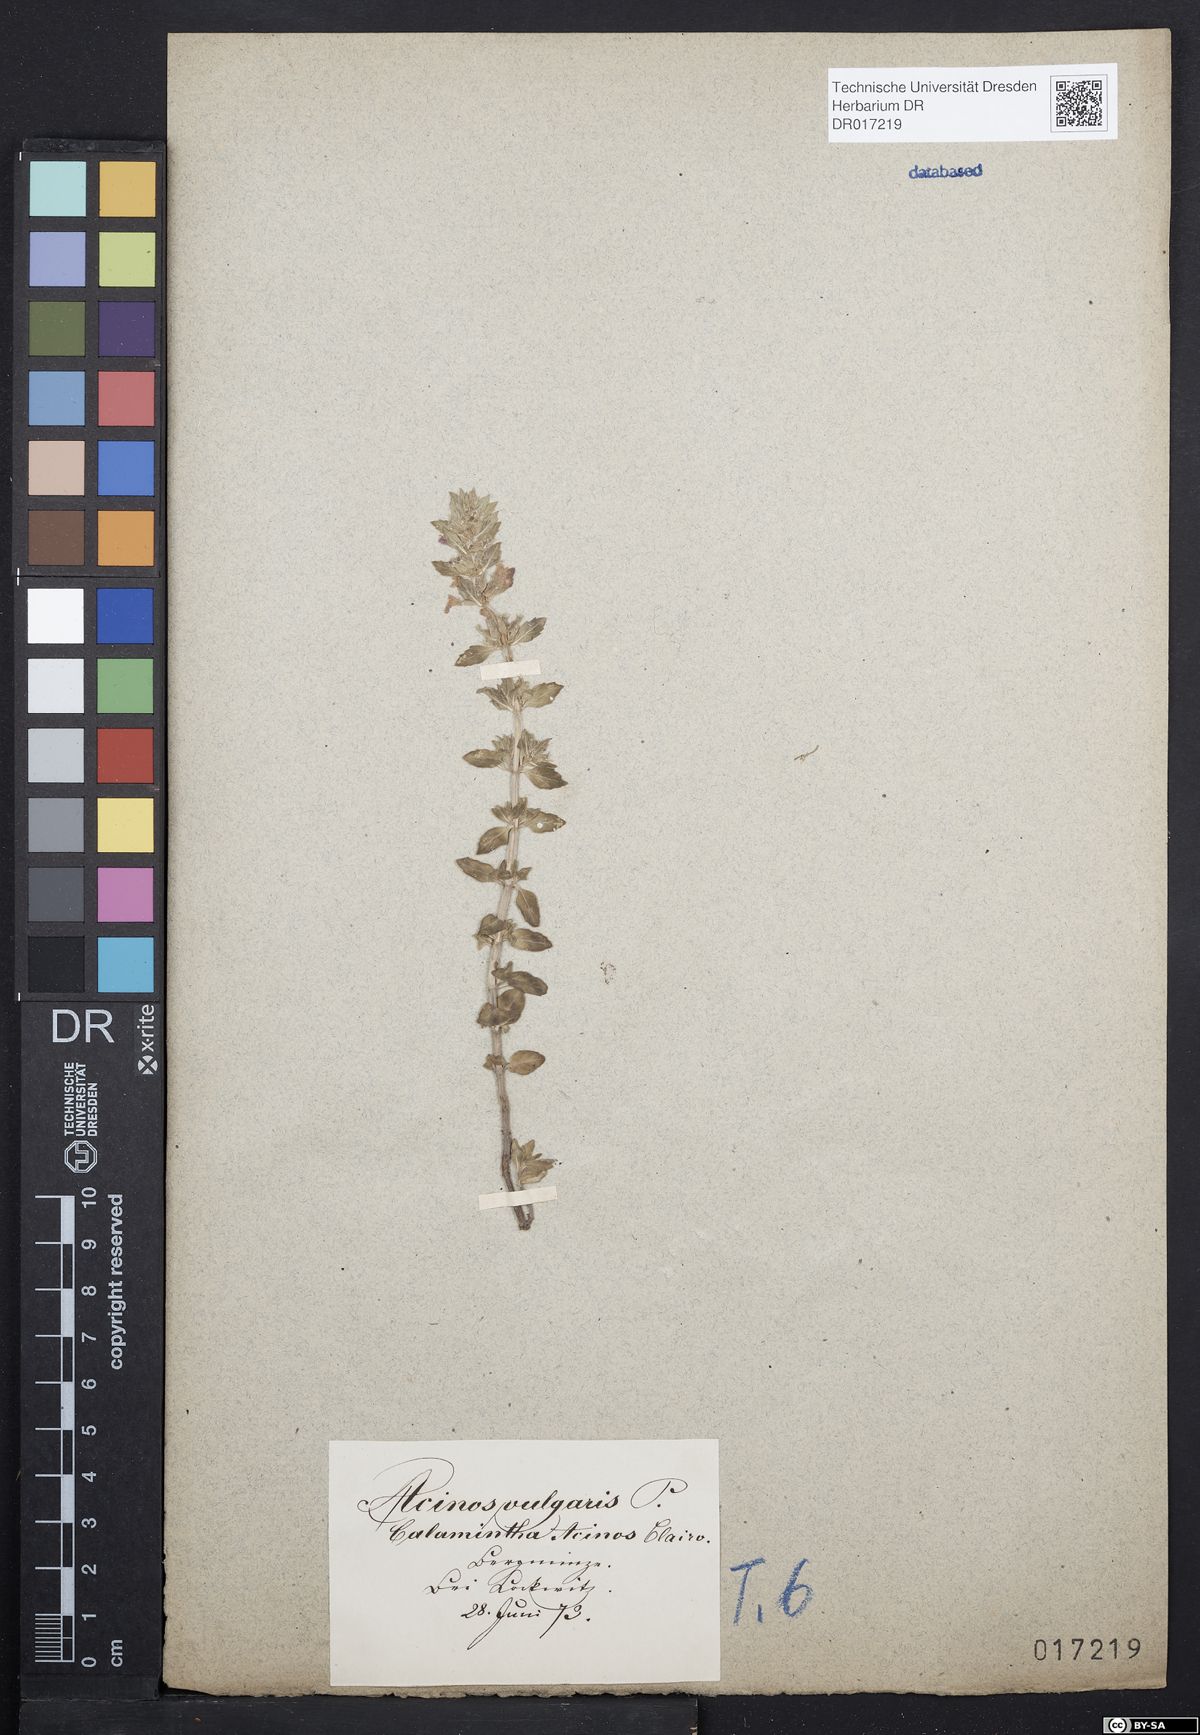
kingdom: Plantae
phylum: Tracheophyta
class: Magnoliopsida
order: Lamiales
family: Lamiaceae
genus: Clinopodium
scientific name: Clinopodium acinos
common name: Basil thyme
